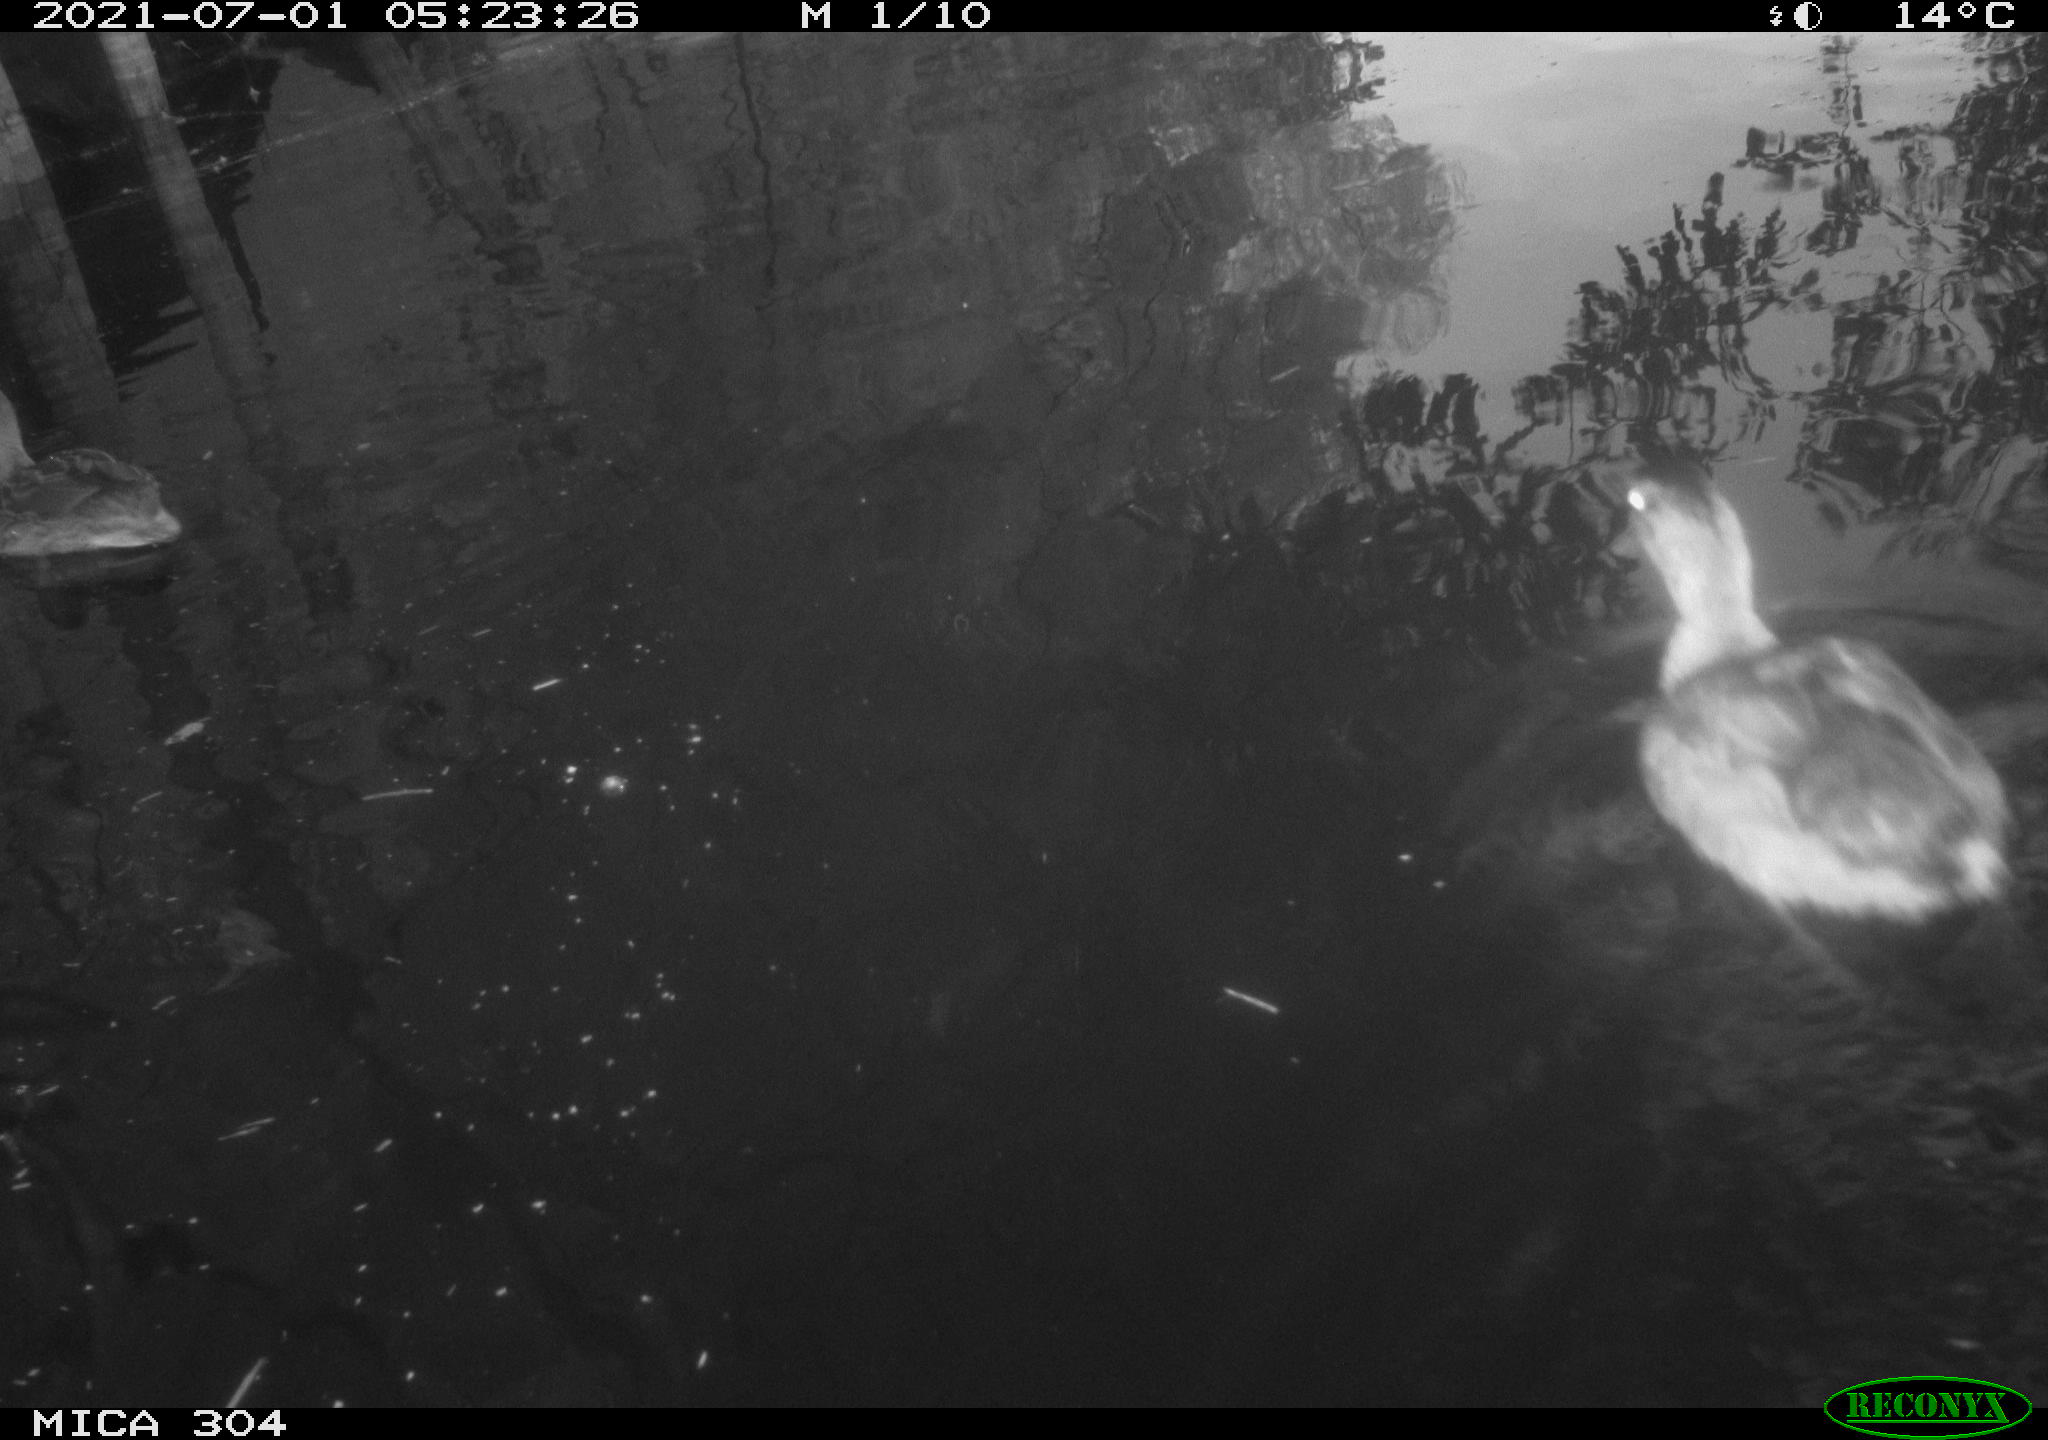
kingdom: Animalia
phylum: Chordata
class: Aves
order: Anseriformes
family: Anatidae
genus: Mareca
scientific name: Mareca strepera
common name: Gadwall
